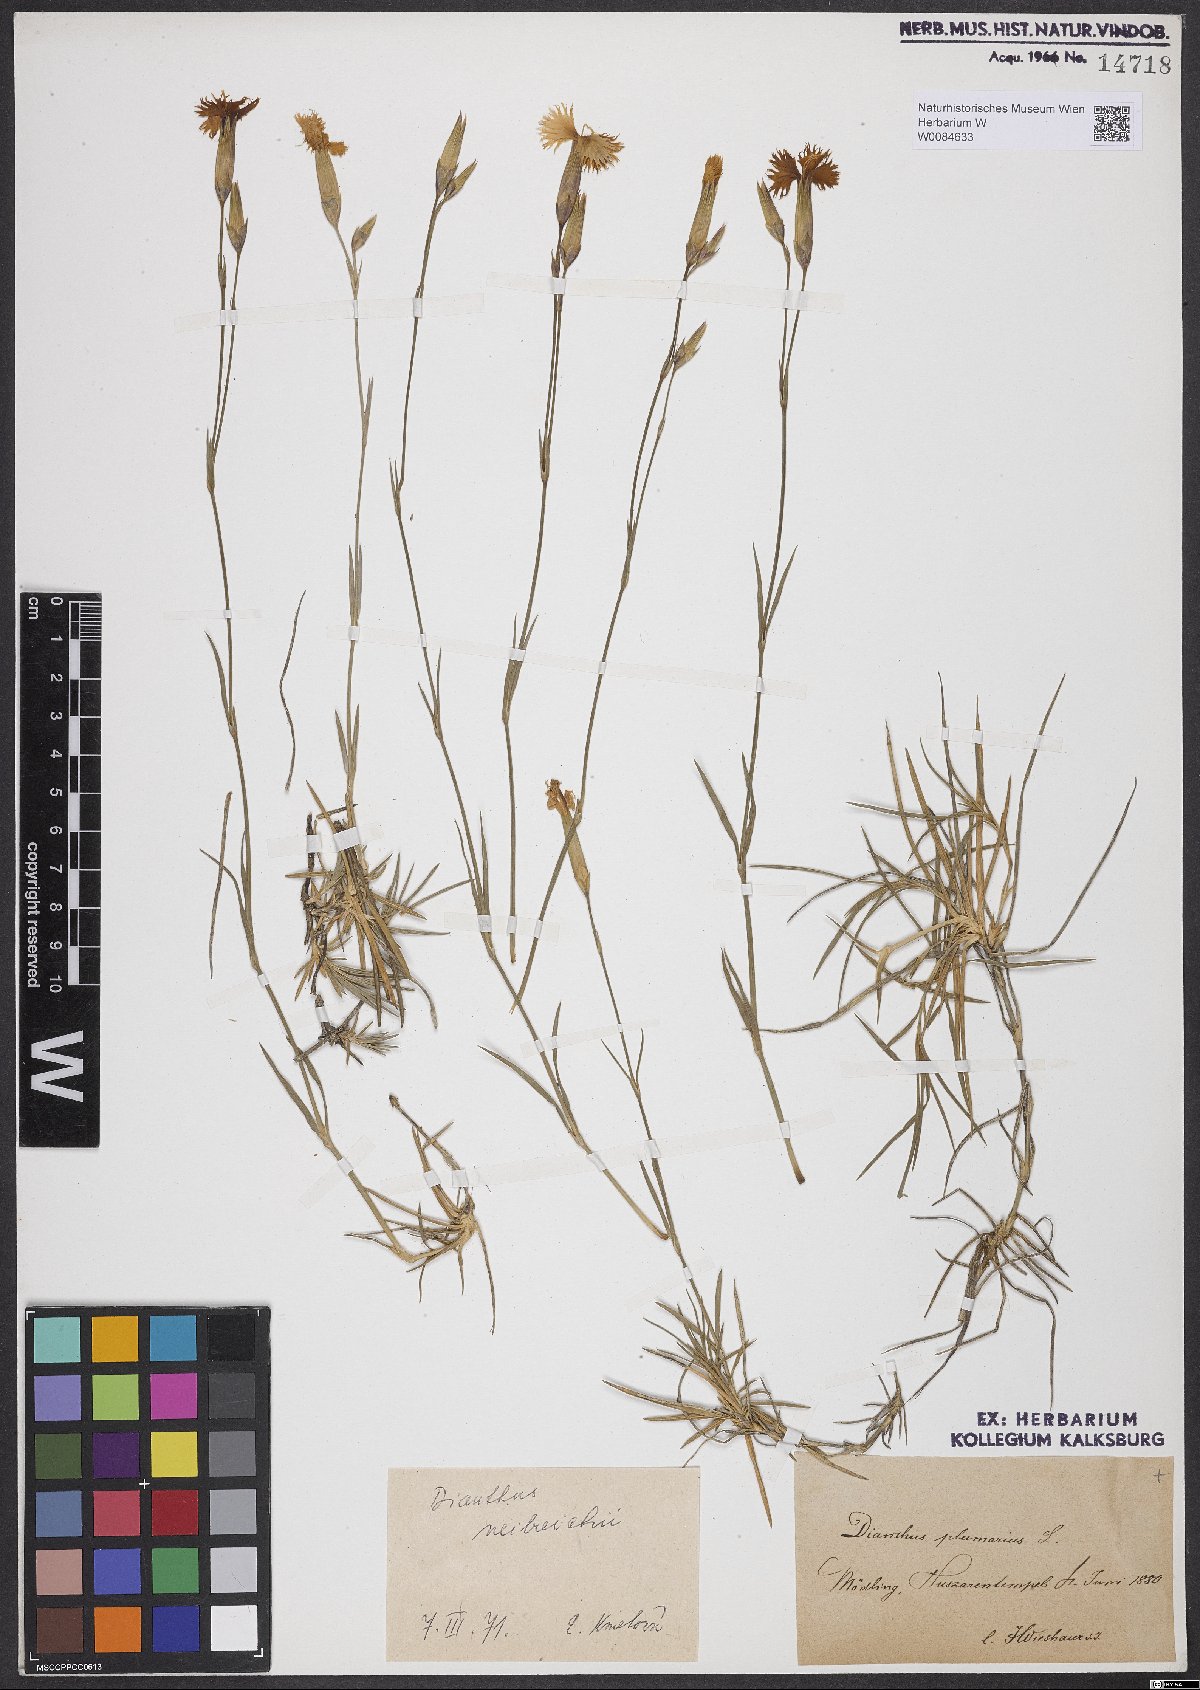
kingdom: Plantae
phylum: Tracheophyta
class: Magnoliopsida
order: Caryophyllales
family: Caryophyllaceae
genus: Dianthus
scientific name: Dianthus plumarius
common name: Pink
